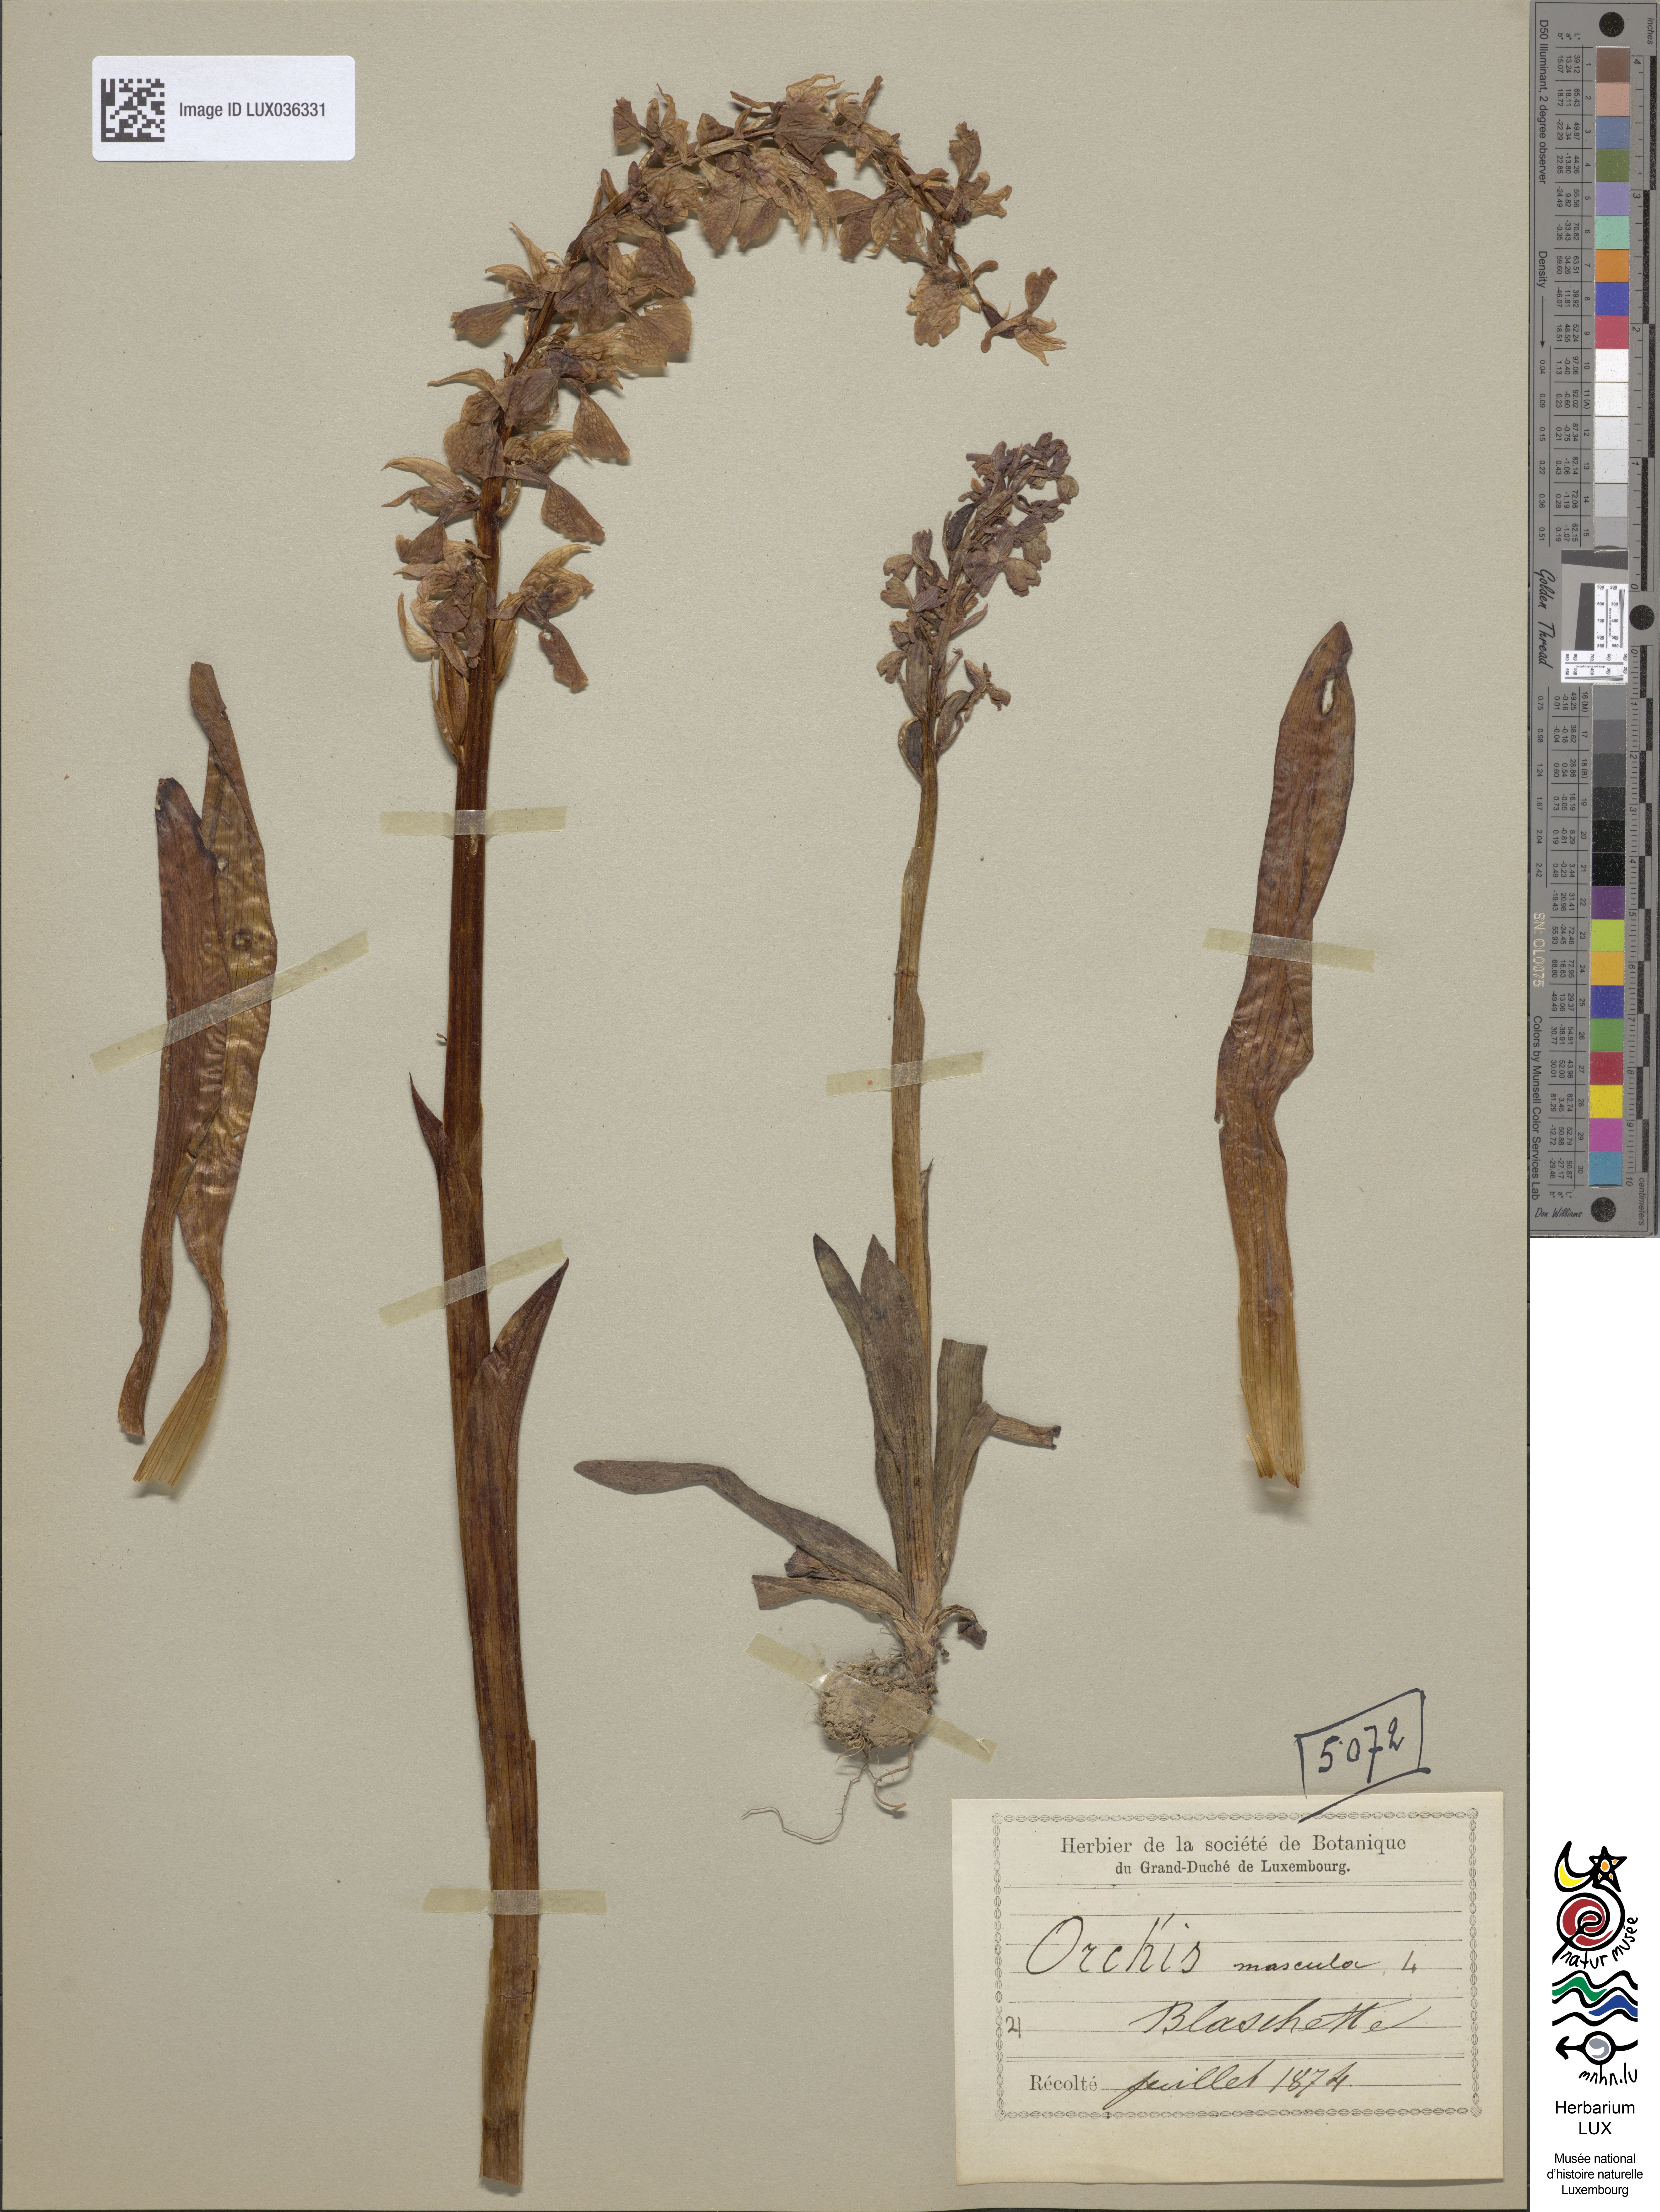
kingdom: Plantae
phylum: Tracheophyta
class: Liliopsida
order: Asparagales
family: Orchidaceae
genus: Orchis
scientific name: Orchis mascula
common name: Early-purple orchid
